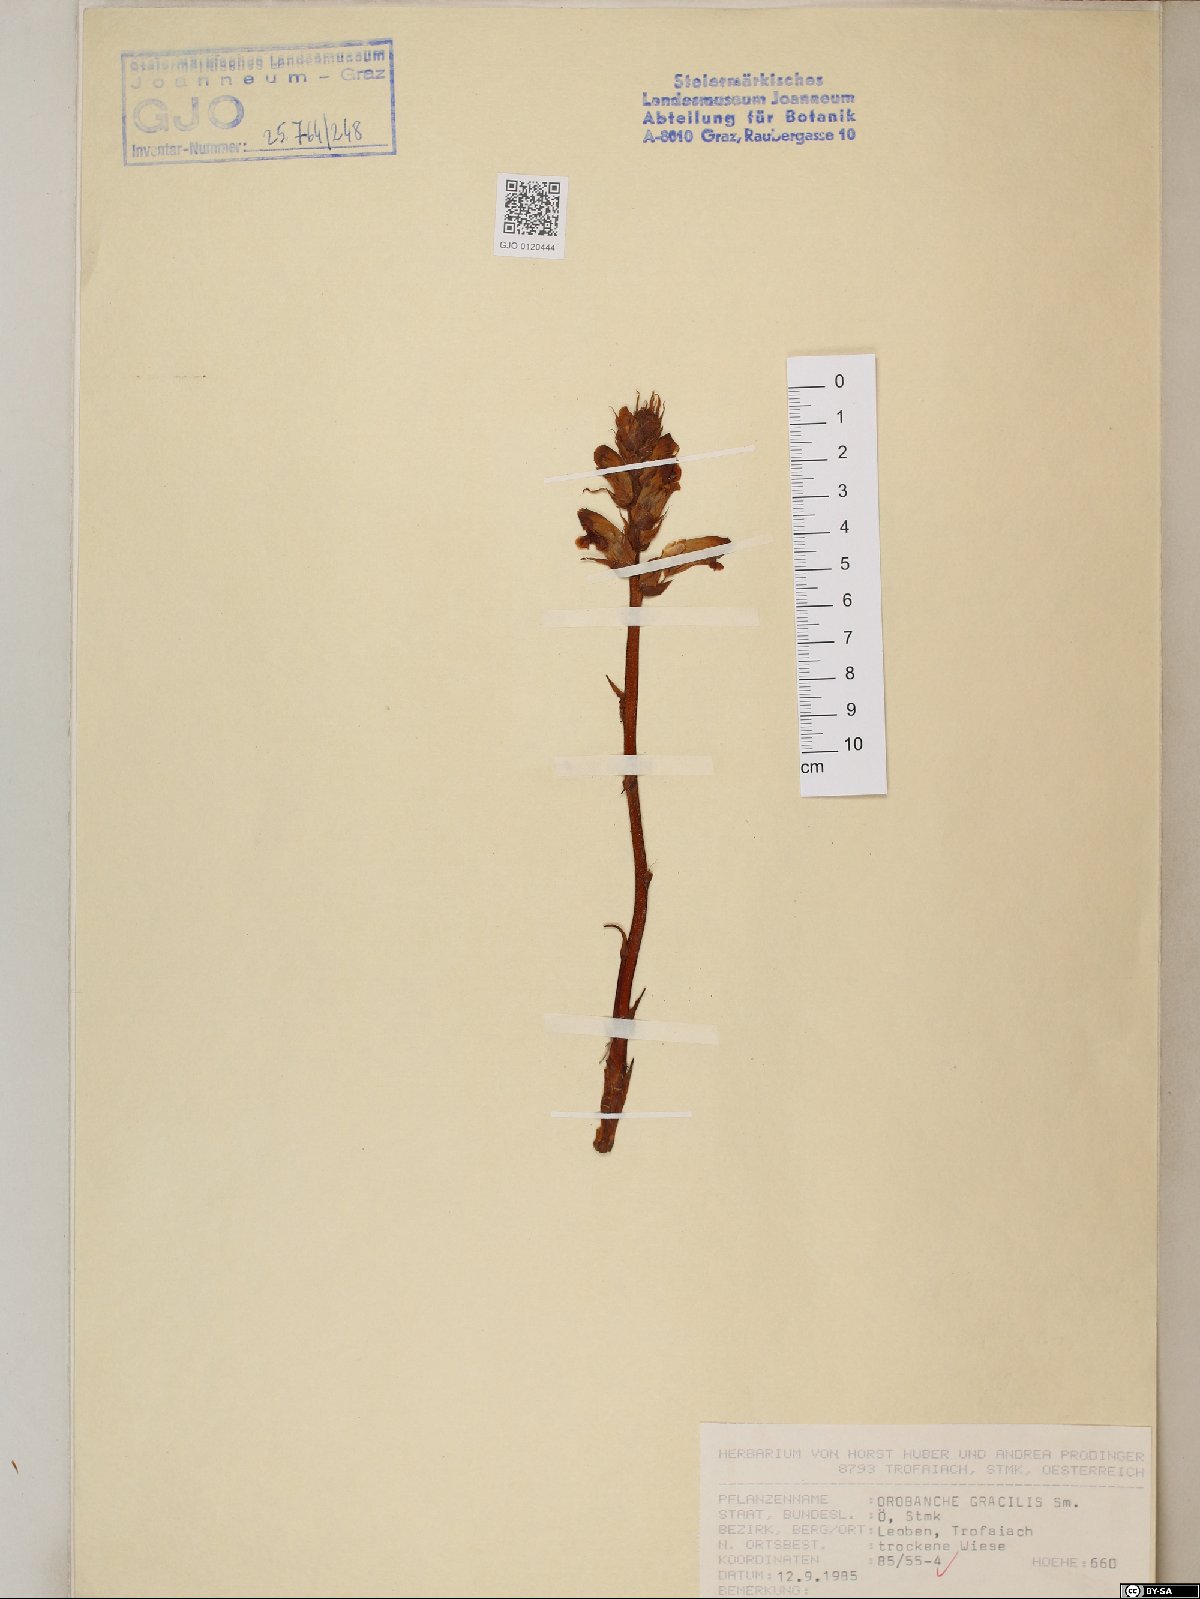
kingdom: Plantae
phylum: Tracheophyta
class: Magnoliopsida
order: Lamiales
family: Orobanchaceae
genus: Orobanche
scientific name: Orobanche gracilis
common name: Slender broomrape
